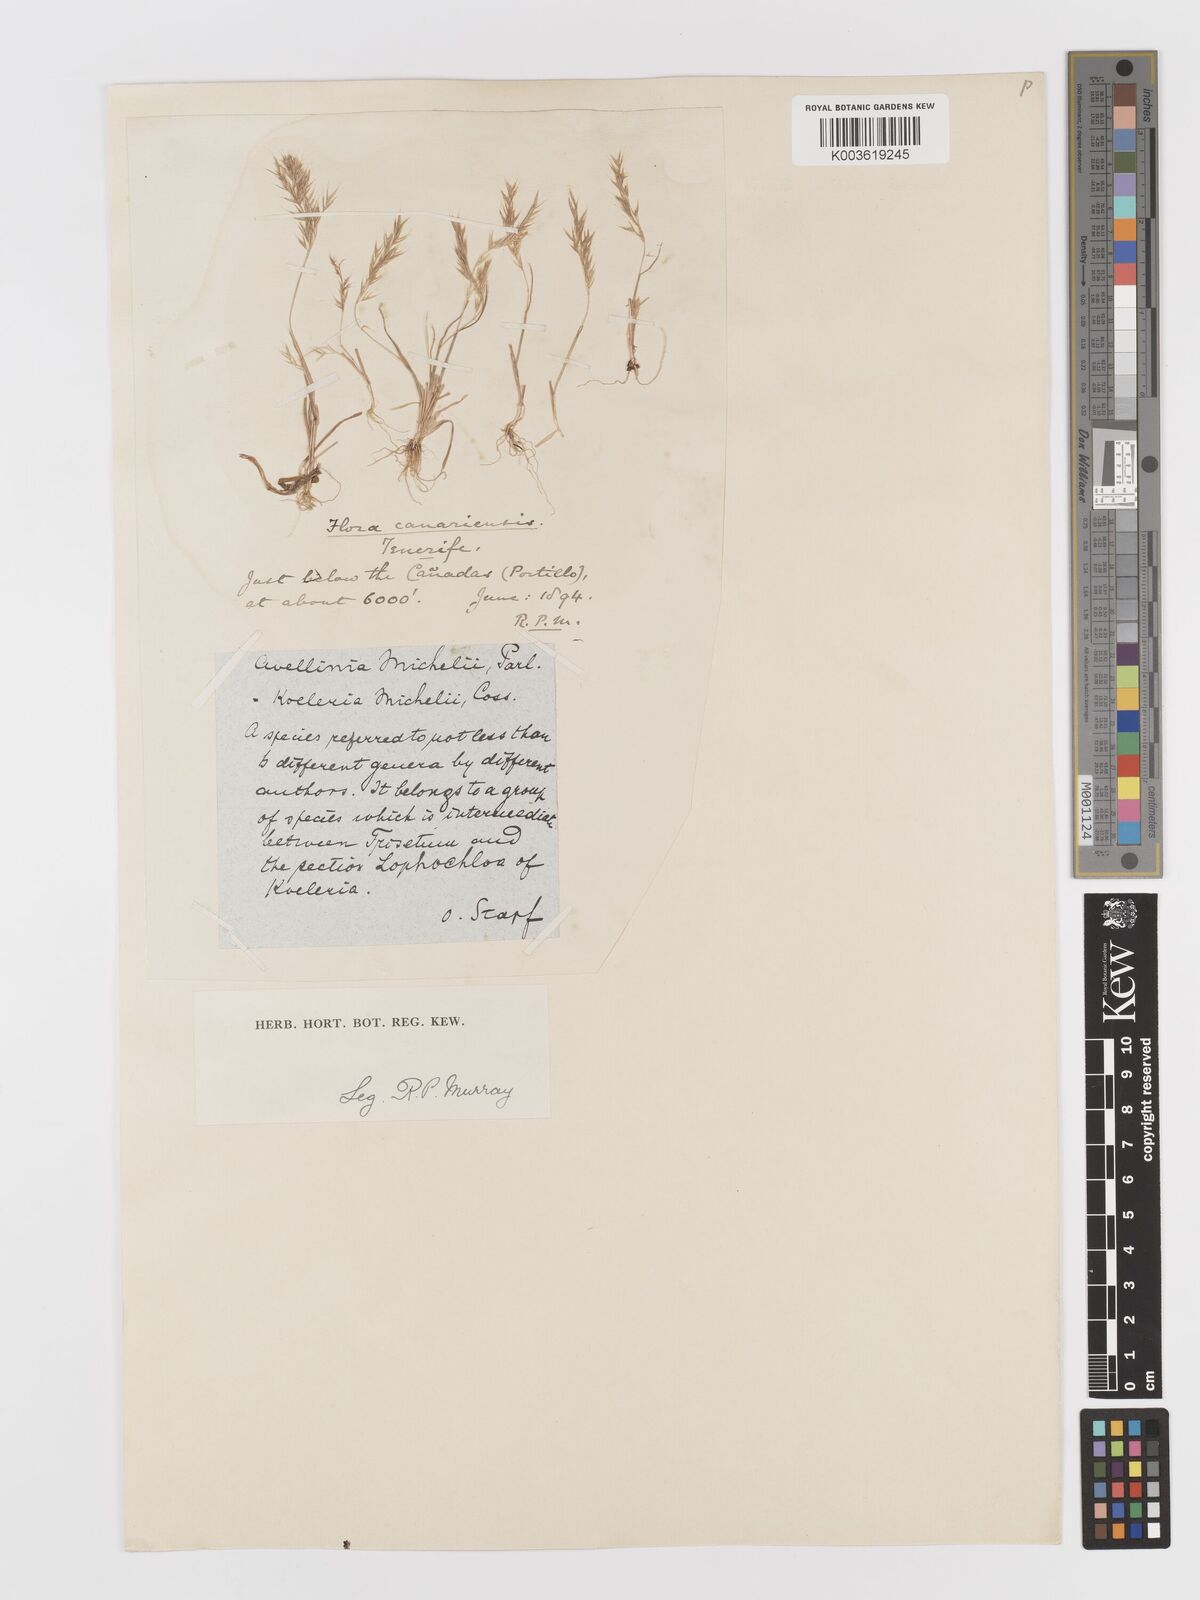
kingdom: Plantae
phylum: Tracheophyta
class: Liliopsida
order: Poales
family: Poaceae
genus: Avellinia
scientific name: Avellinia festucoides
